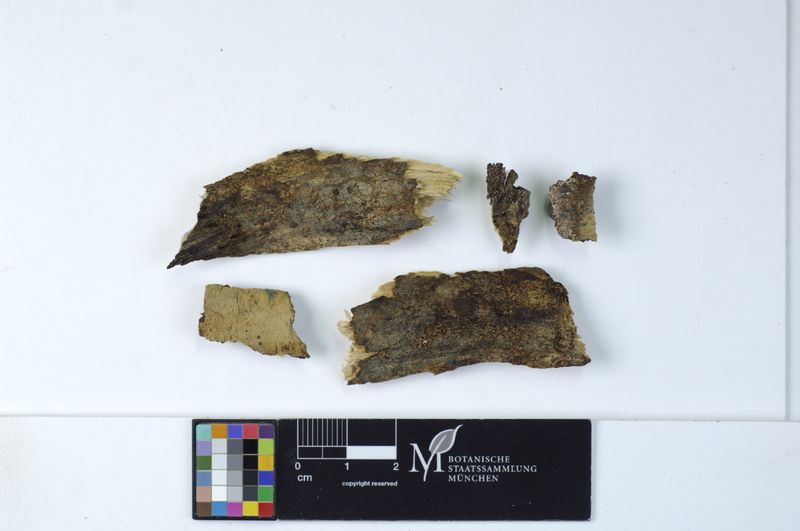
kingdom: Fungi
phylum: Basidiomycota
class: Agaricomycetes
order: Cantharellales
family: Botryobasidiaceae
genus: Botryobasidium
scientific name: Botryobasidium vagum
